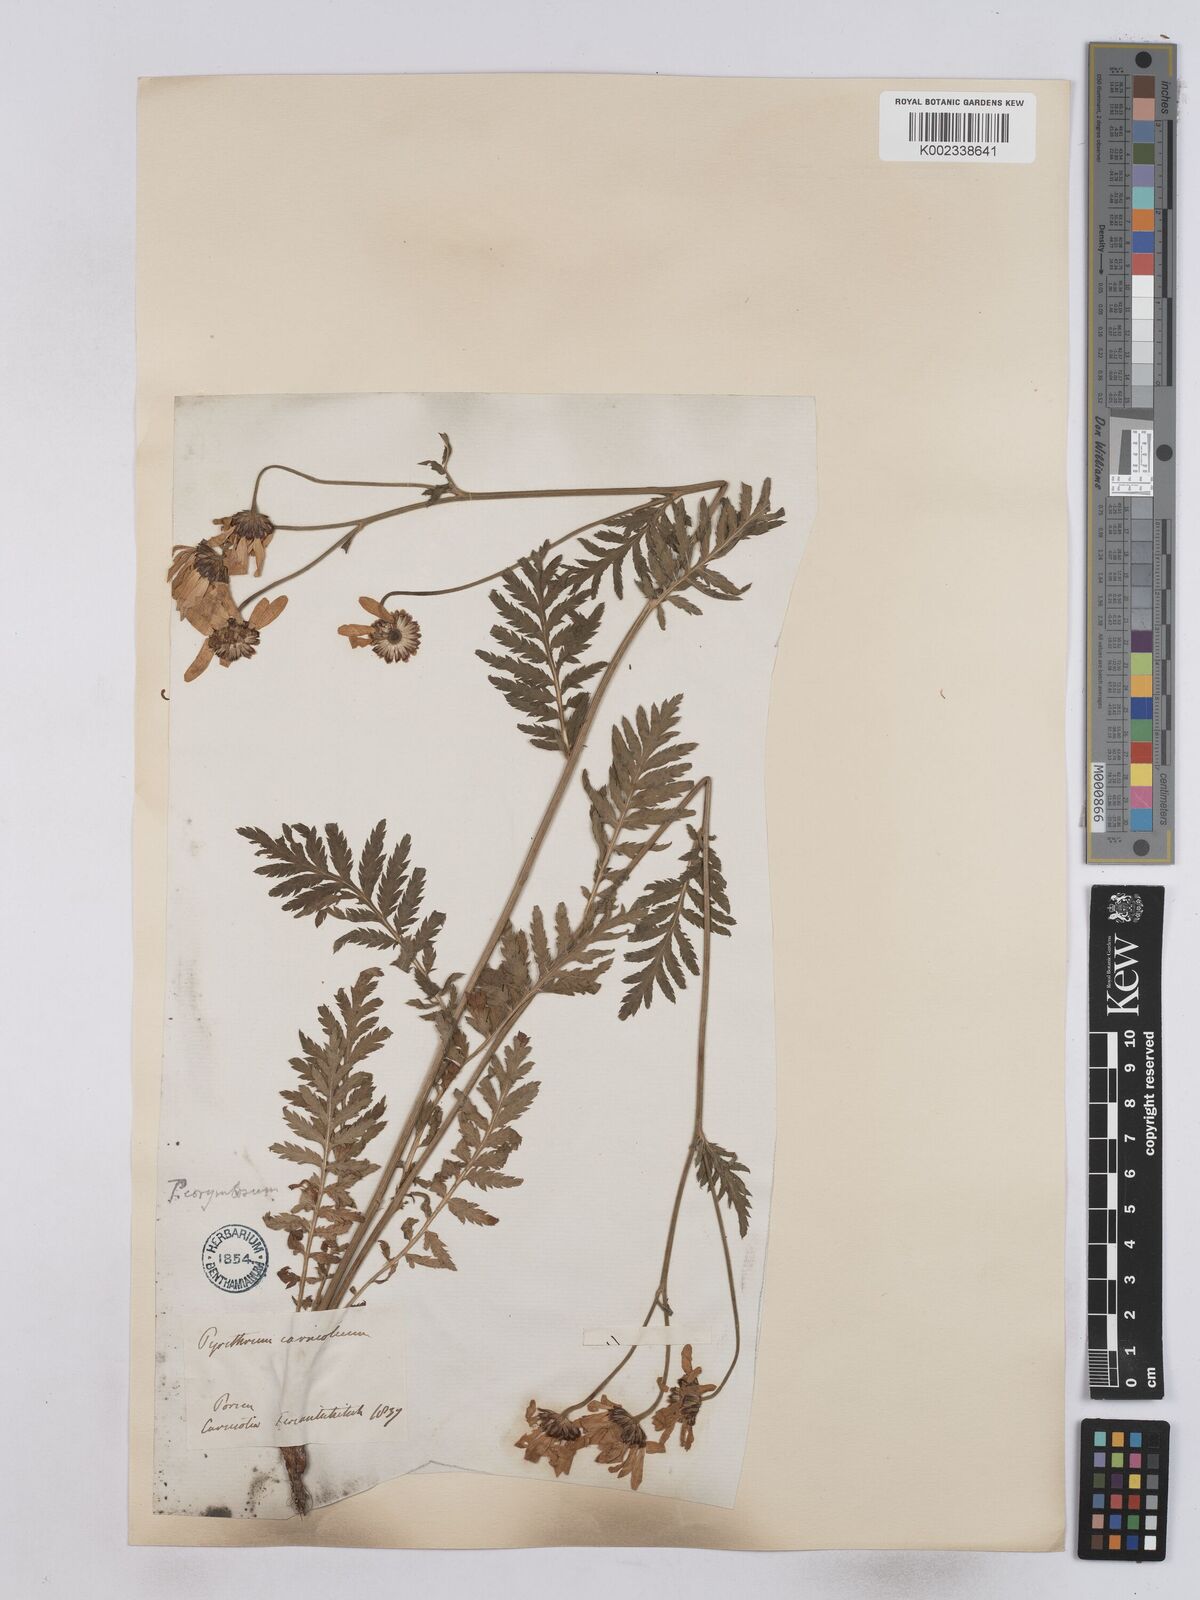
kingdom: Plantae
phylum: Tracheophyta
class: Magnoliopsida
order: Asterales
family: Asteraceae
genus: Tanacetum
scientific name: Tanacetum corymbosum
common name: Scentless feverfew
